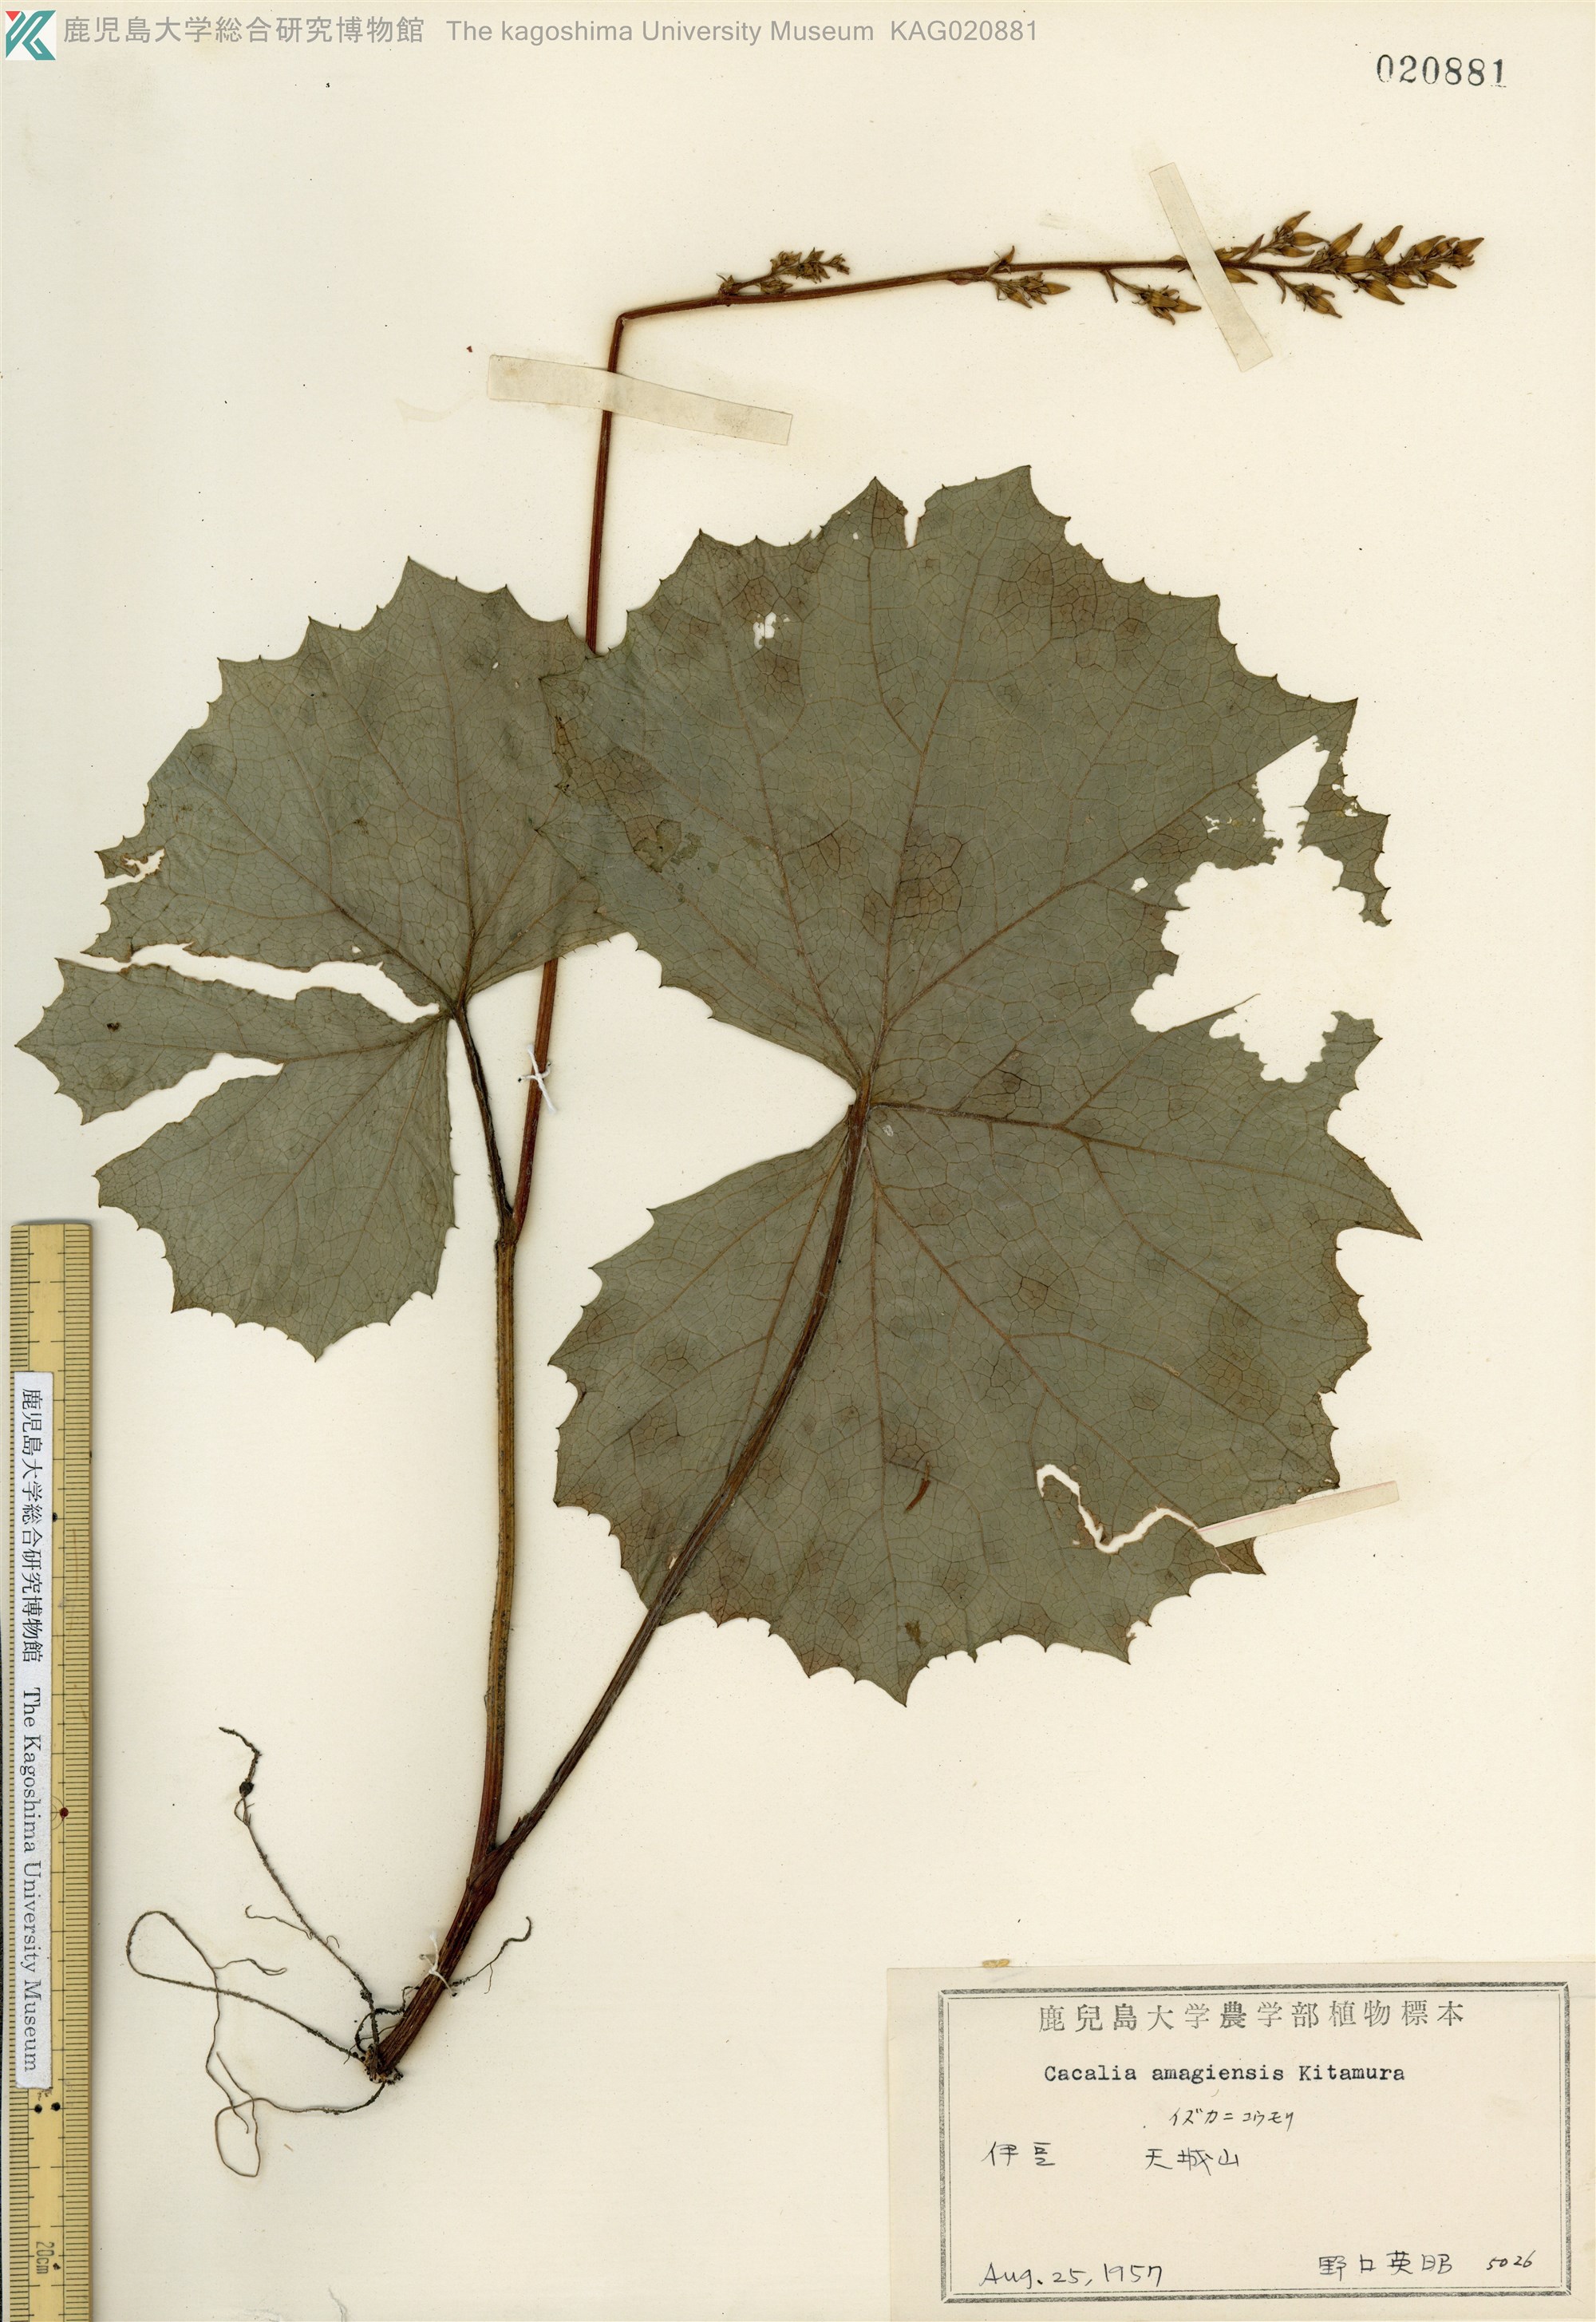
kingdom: Plantae
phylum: Tracheophyta
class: Magnoliopsida
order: Asterales
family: Asteraceae
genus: Taimingasa
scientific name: Taimingasa amagiensis
